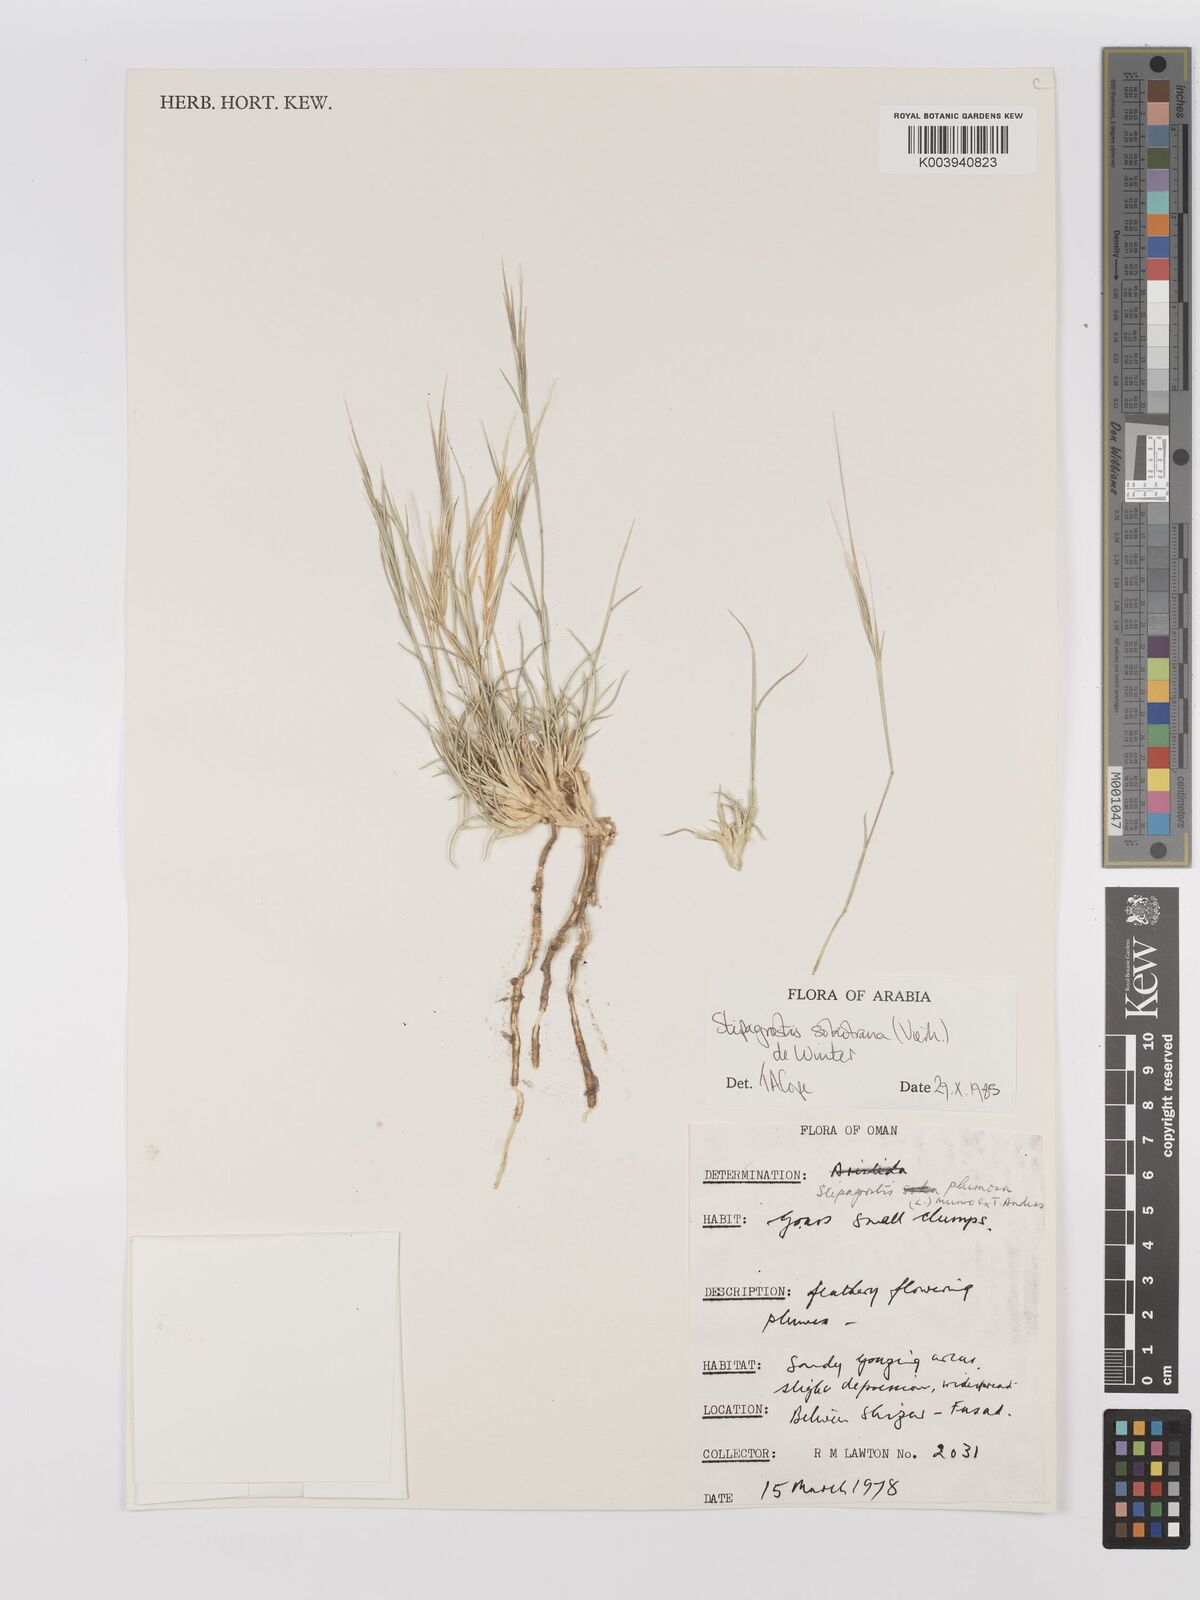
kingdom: Plantae
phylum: Tracheophyta
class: Liliopsida
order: Poales
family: Poaceae
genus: Stipagrostis
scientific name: Stipagrostis sokotrana
